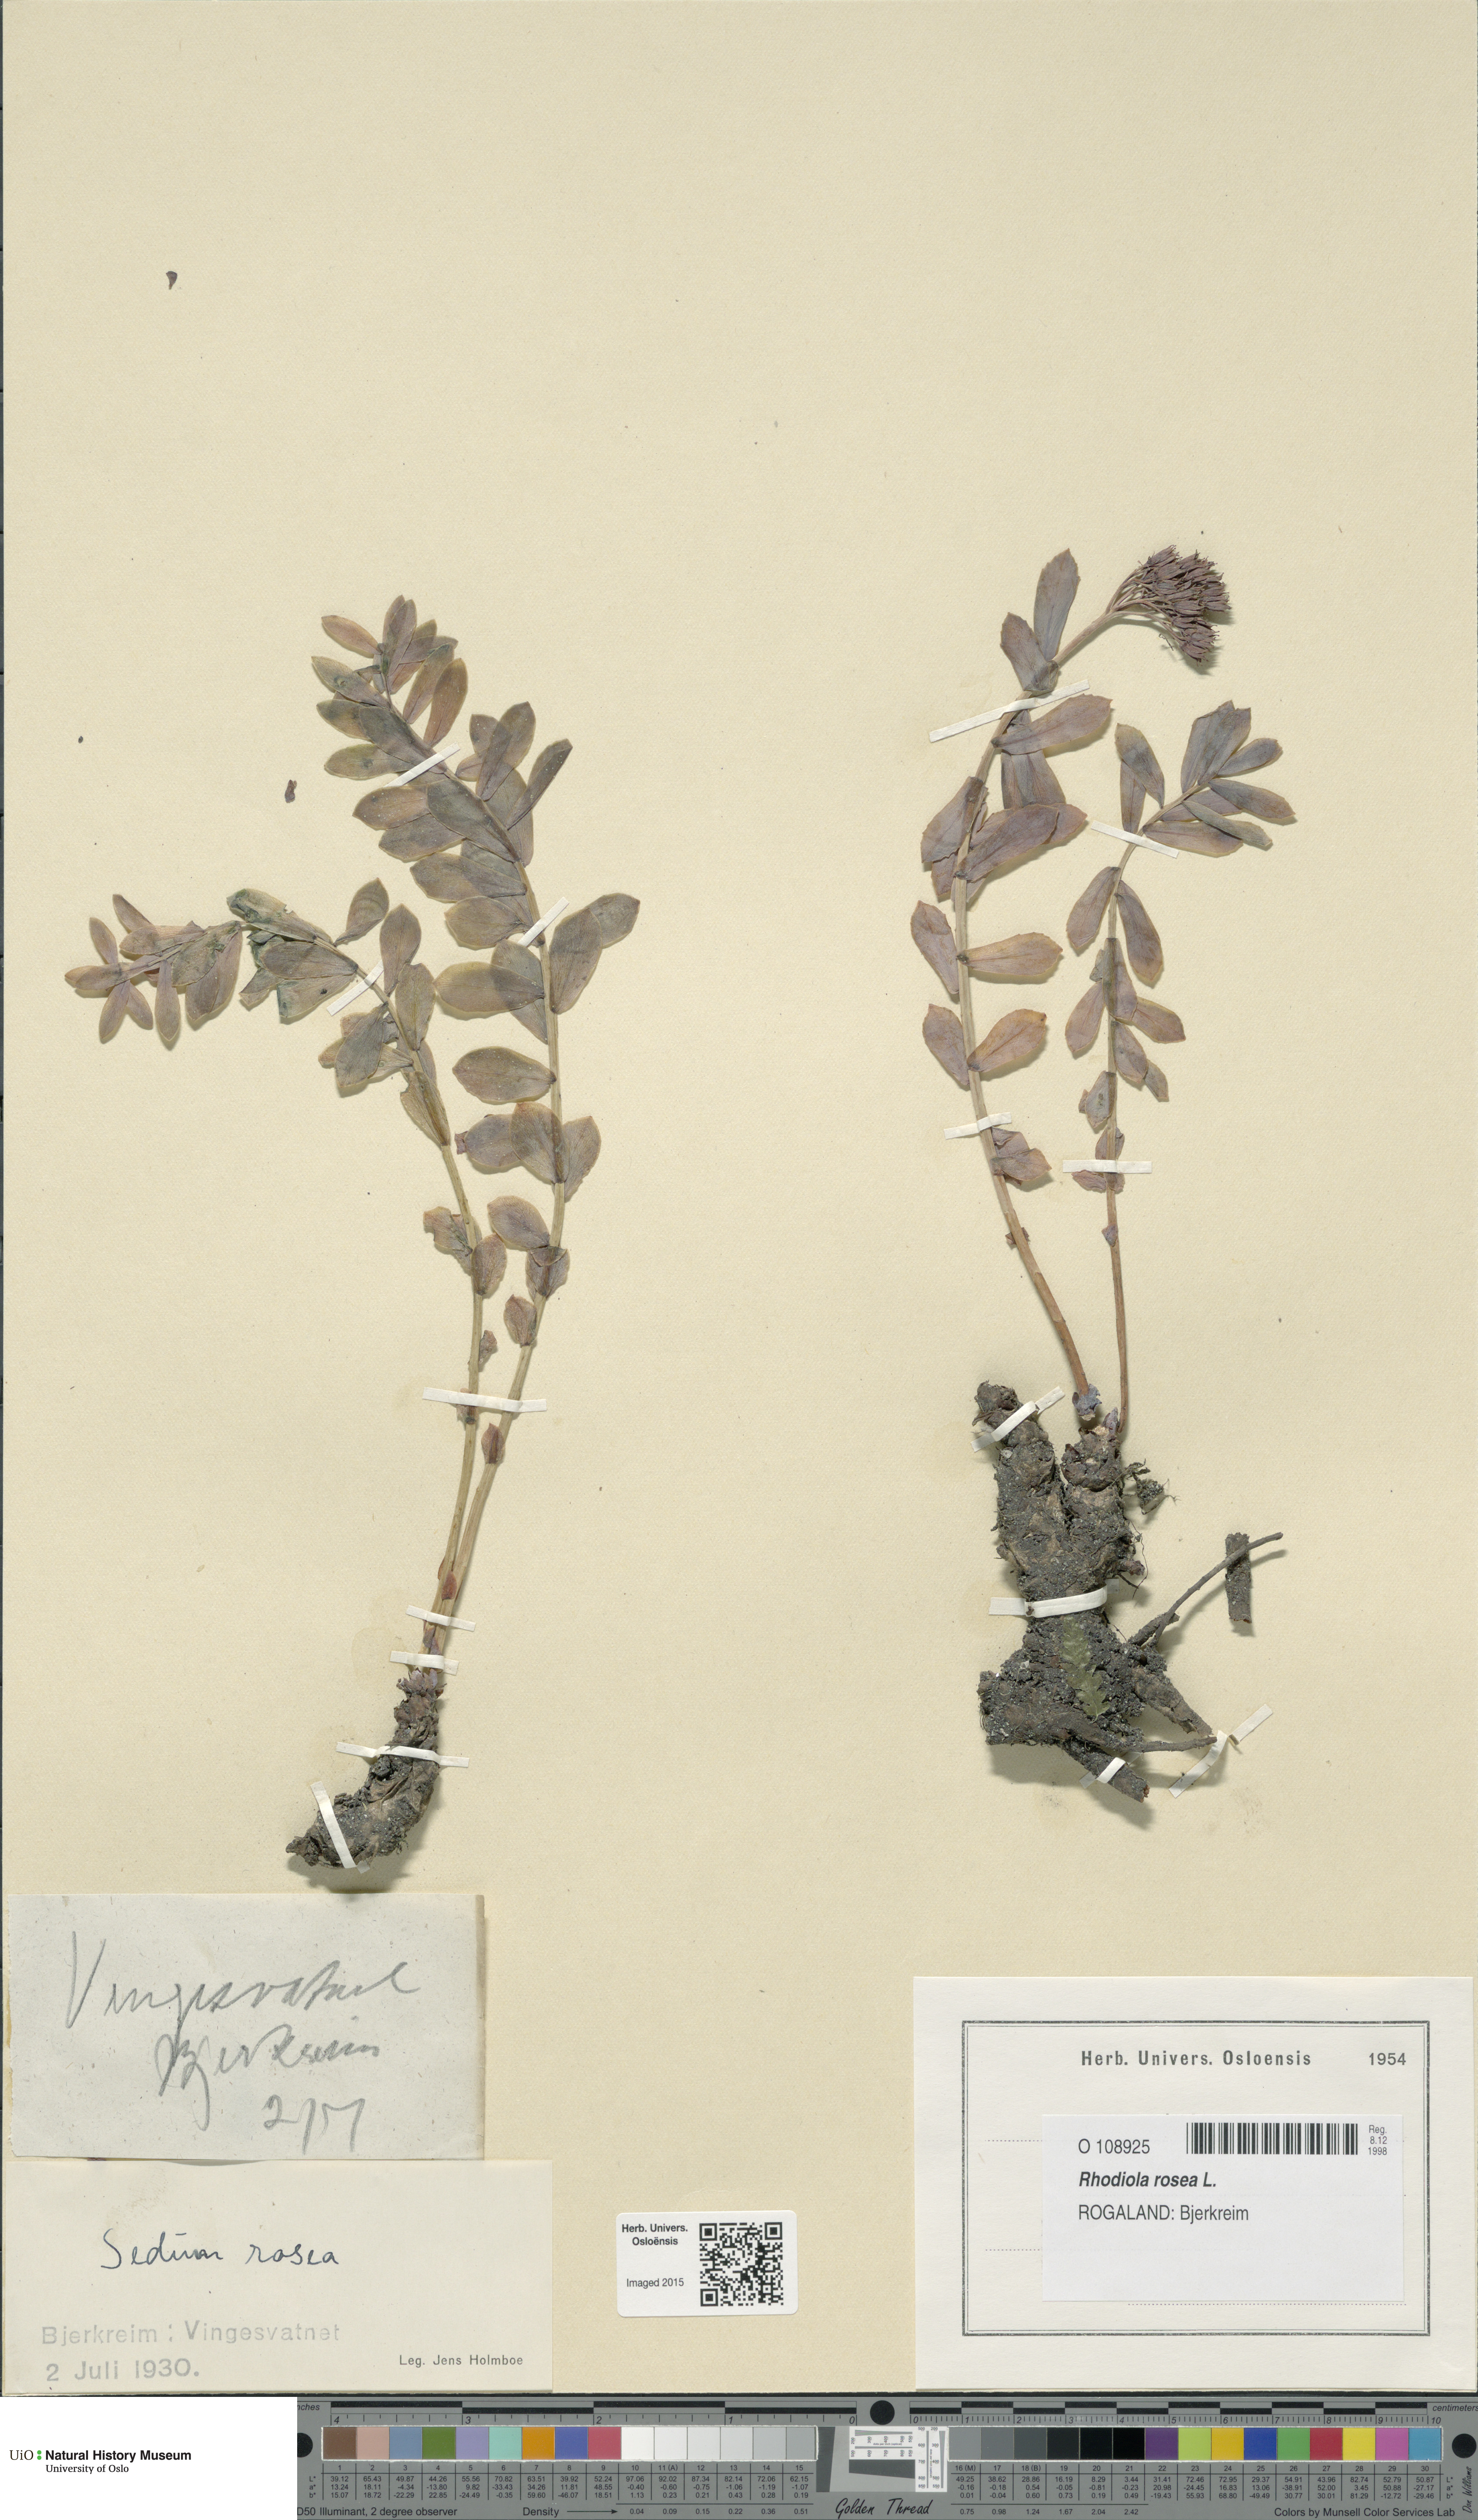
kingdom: Plantae
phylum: Tracheophyta
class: Magnoliopsida
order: Saxifragales
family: Crassulaceae
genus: Rhodiola
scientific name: Rhodiola rosea
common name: Roseroot
